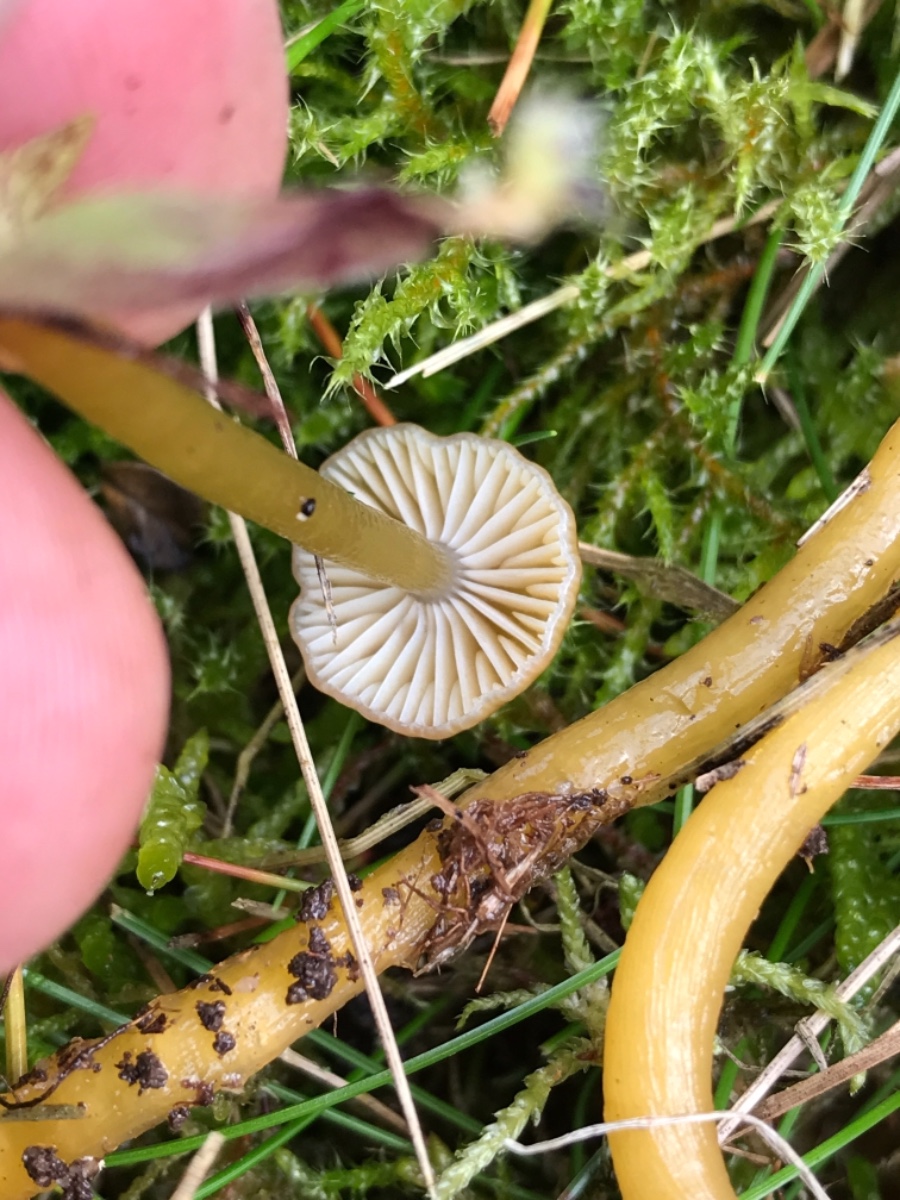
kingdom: Fungi
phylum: Basidiomycota
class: Agaricomycetes
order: Agaricales
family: Hygrophoraceae
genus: Gliophorus
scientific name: Gliophorus laetus
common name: brusk-vokshat
